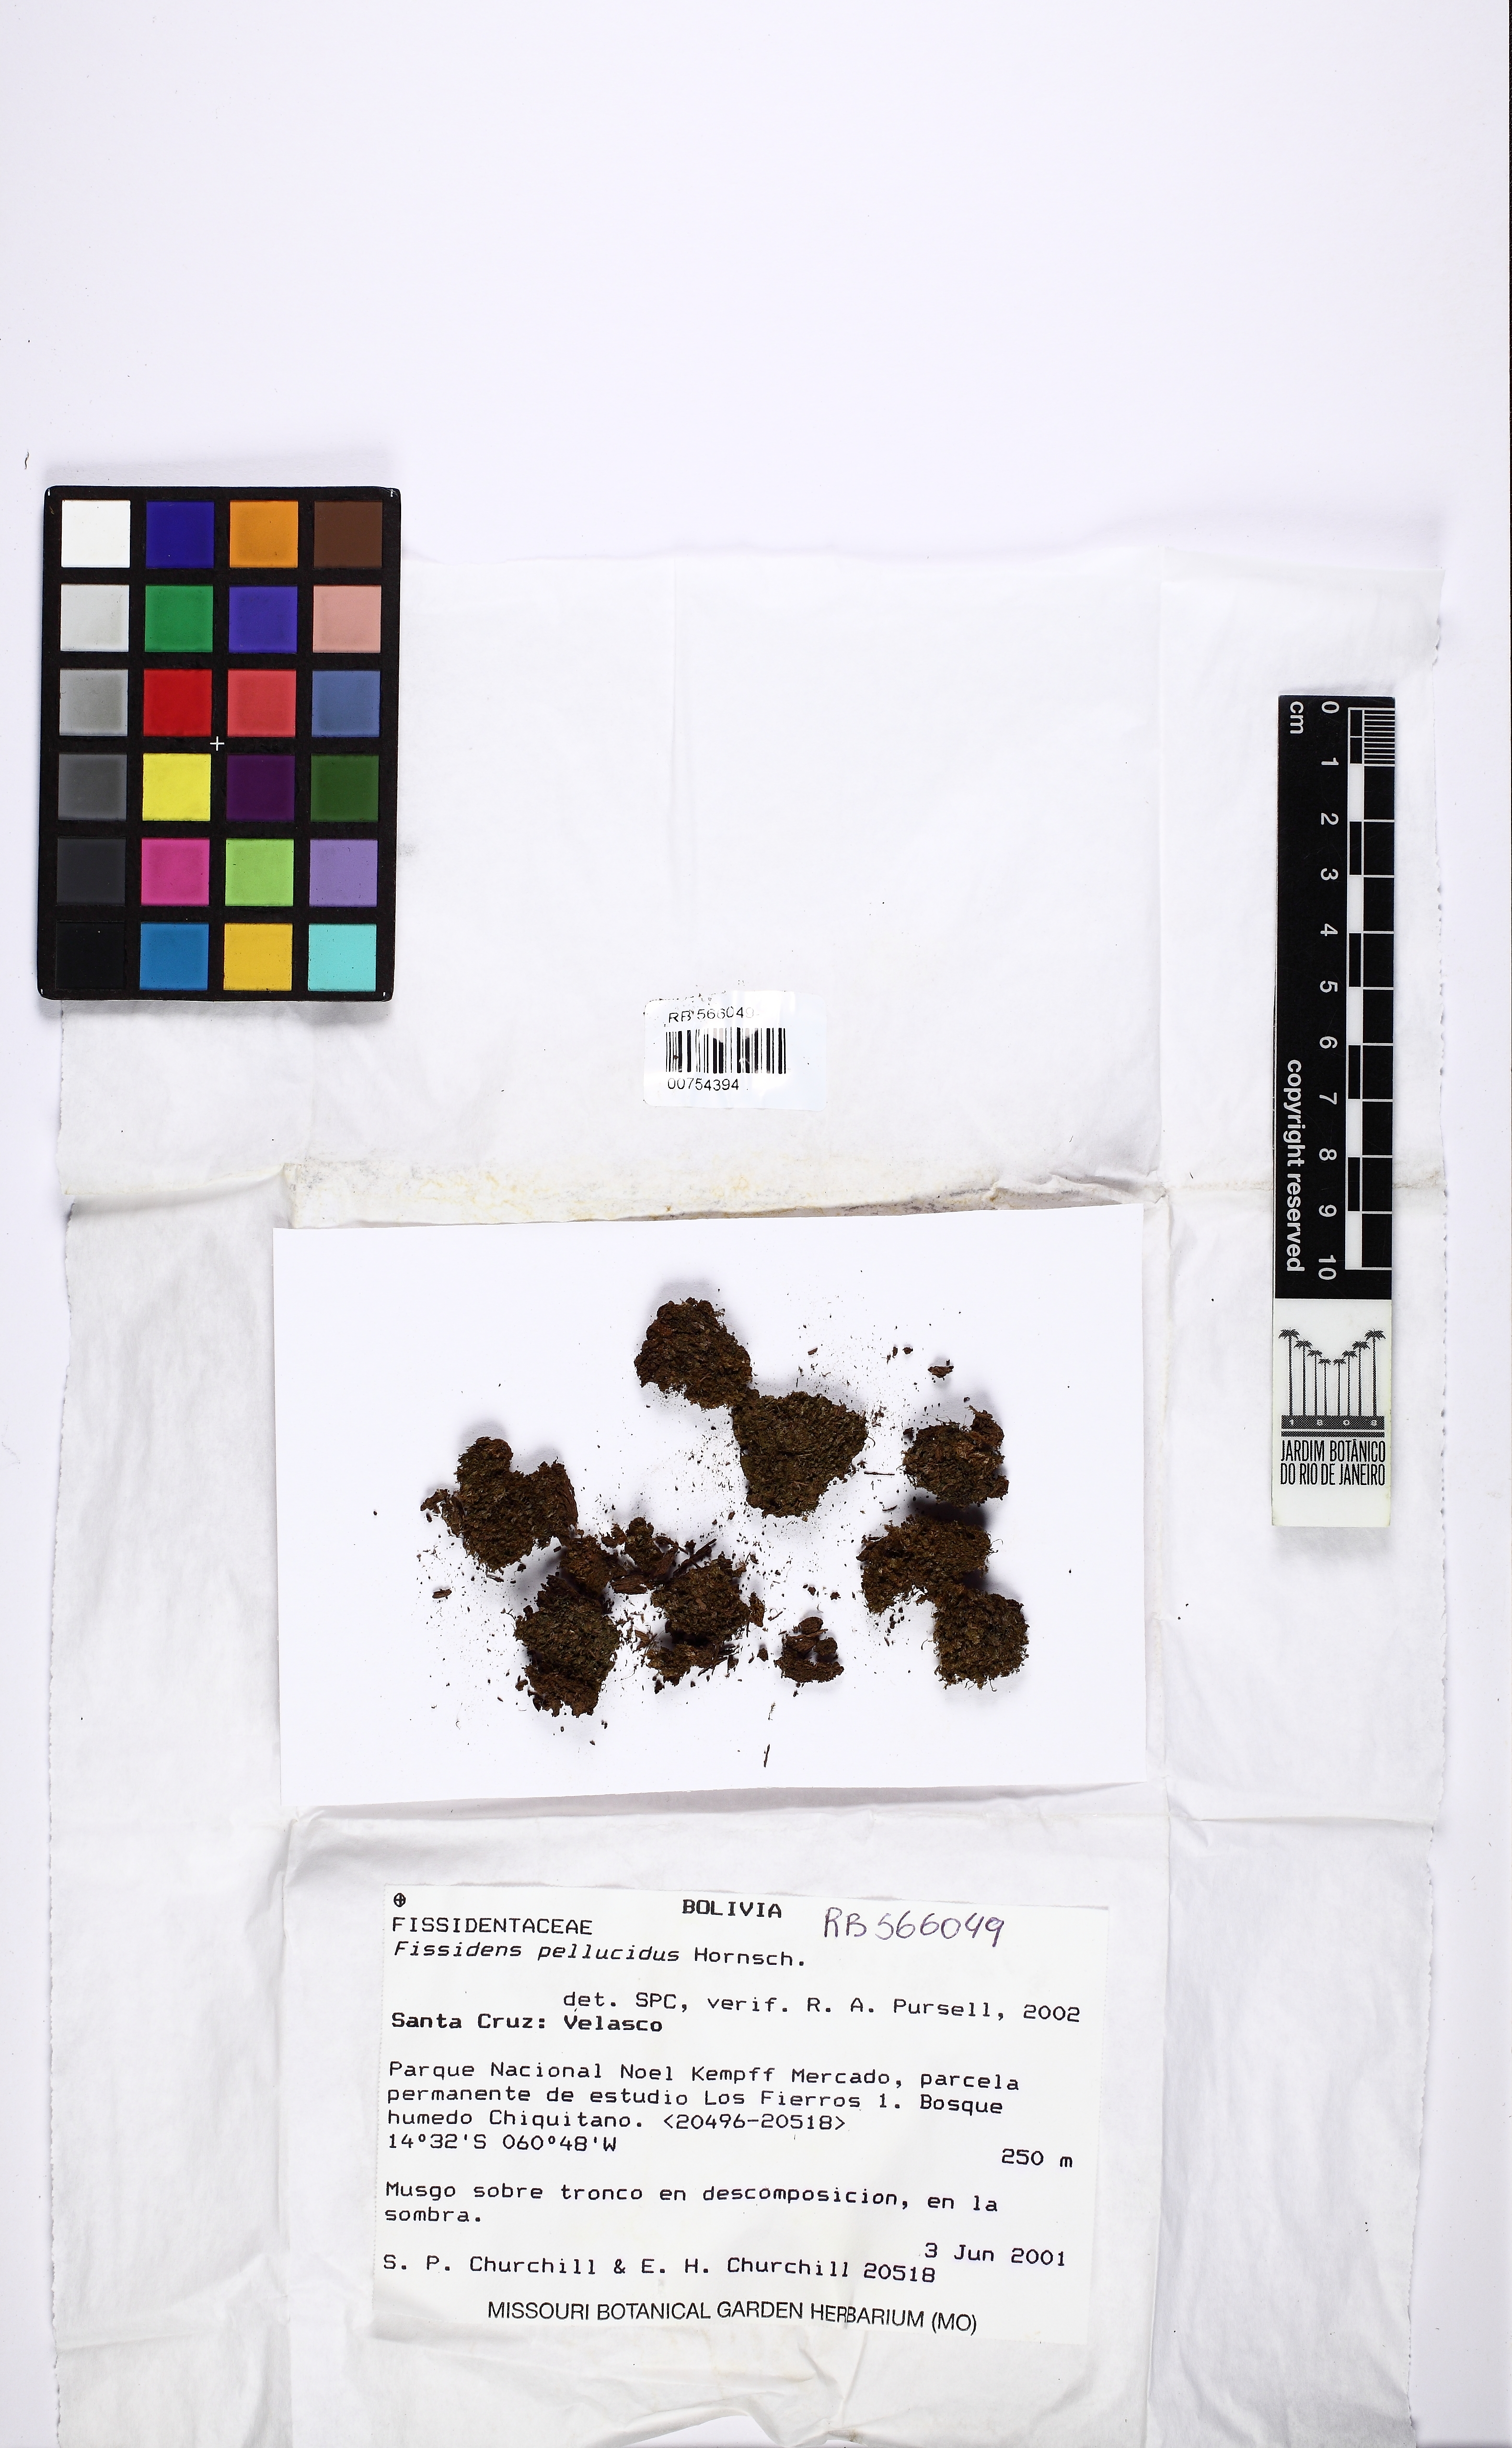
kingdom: Plantae
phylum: Bryophyta
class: Bryopsida
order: Dicranales
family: Fissidentaceae
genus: Fissidens
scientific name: Fissidens pellucidus
